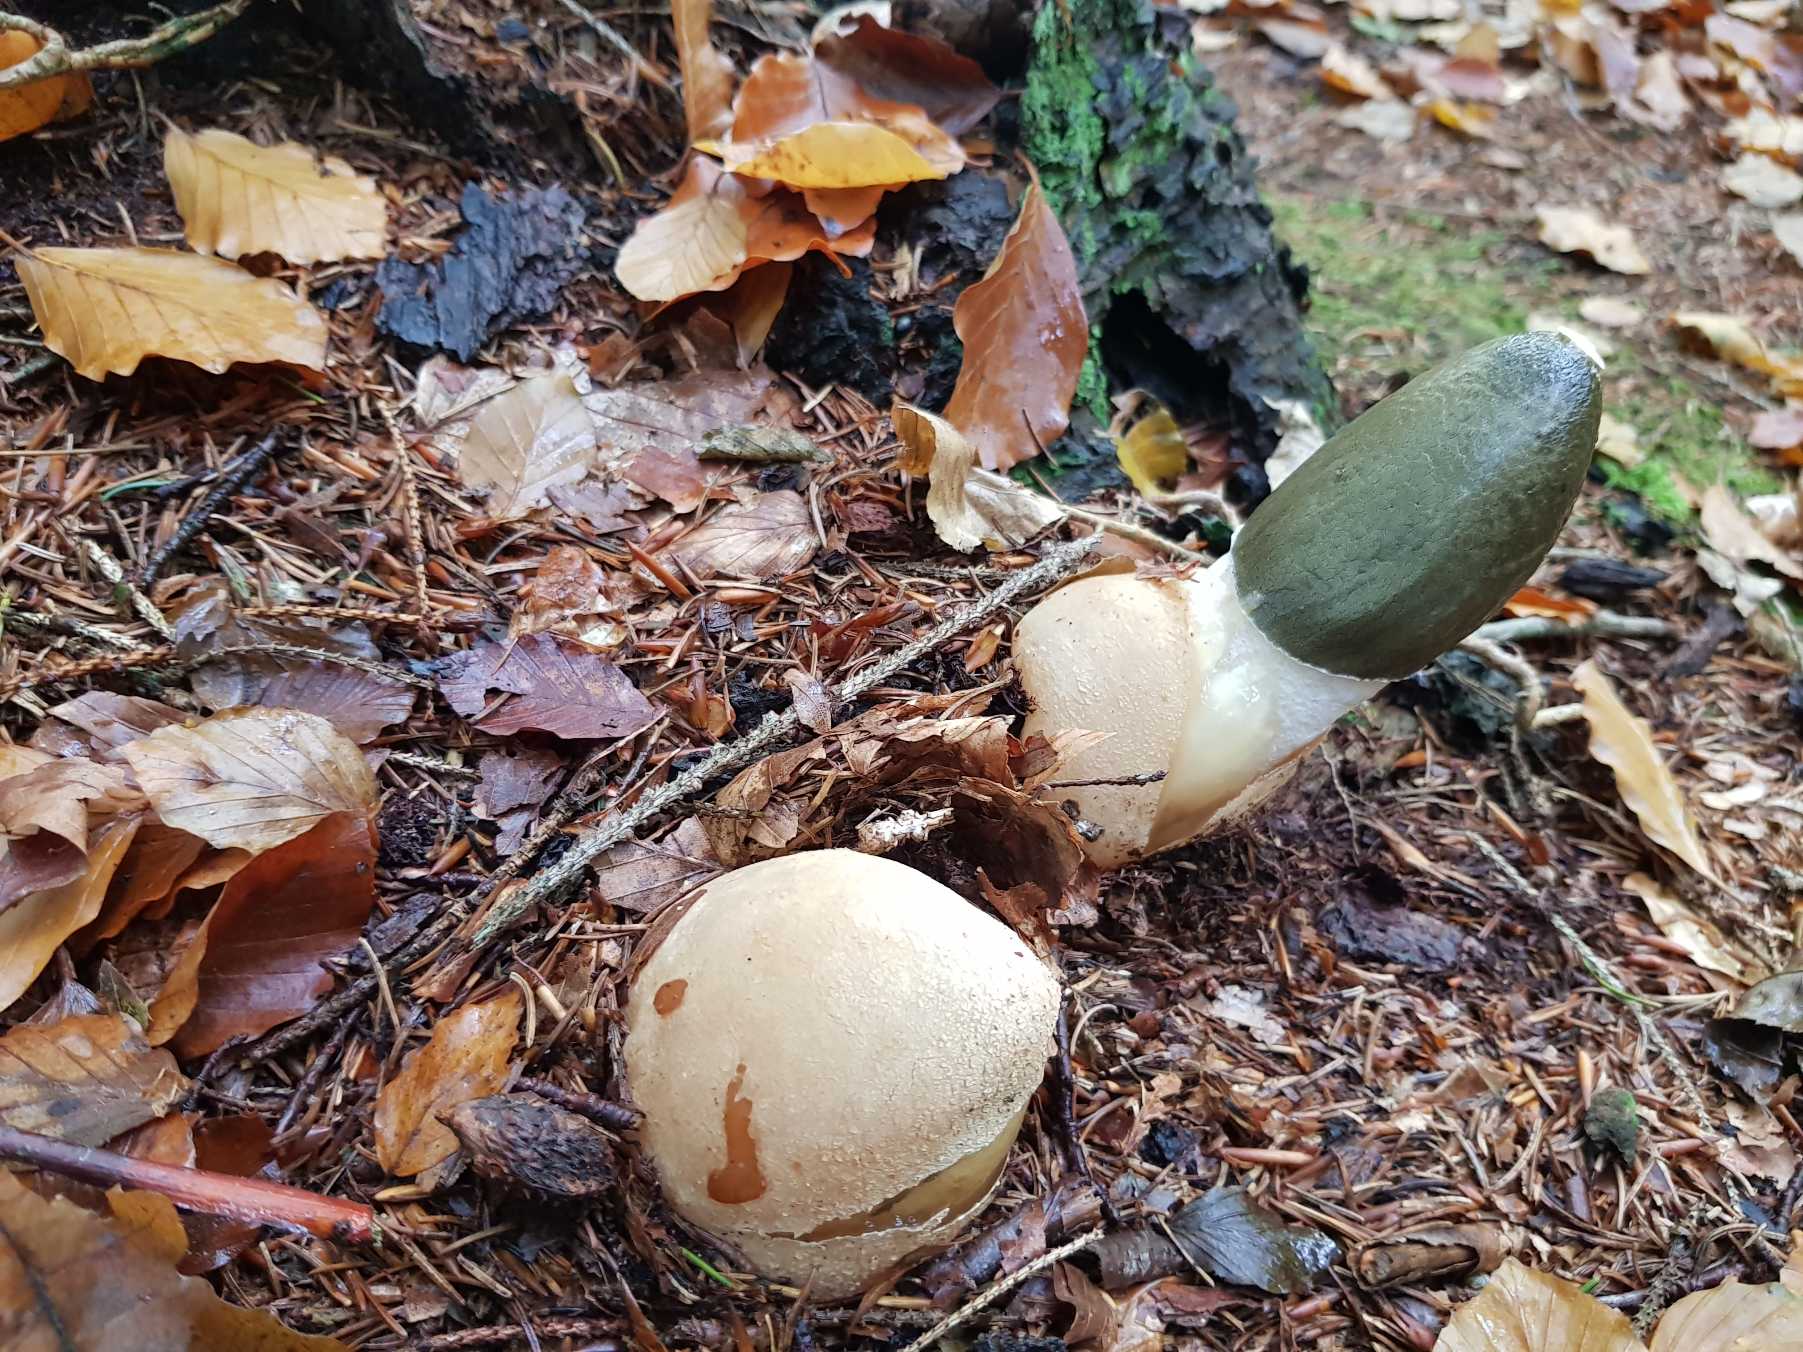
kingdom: Fungi
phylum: Basidiomycota
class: Agaricomycetes
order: Phallales
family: Phallaceae
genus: Phallus
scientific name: Phallus impudicus
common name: Almindelig stinksvamp
